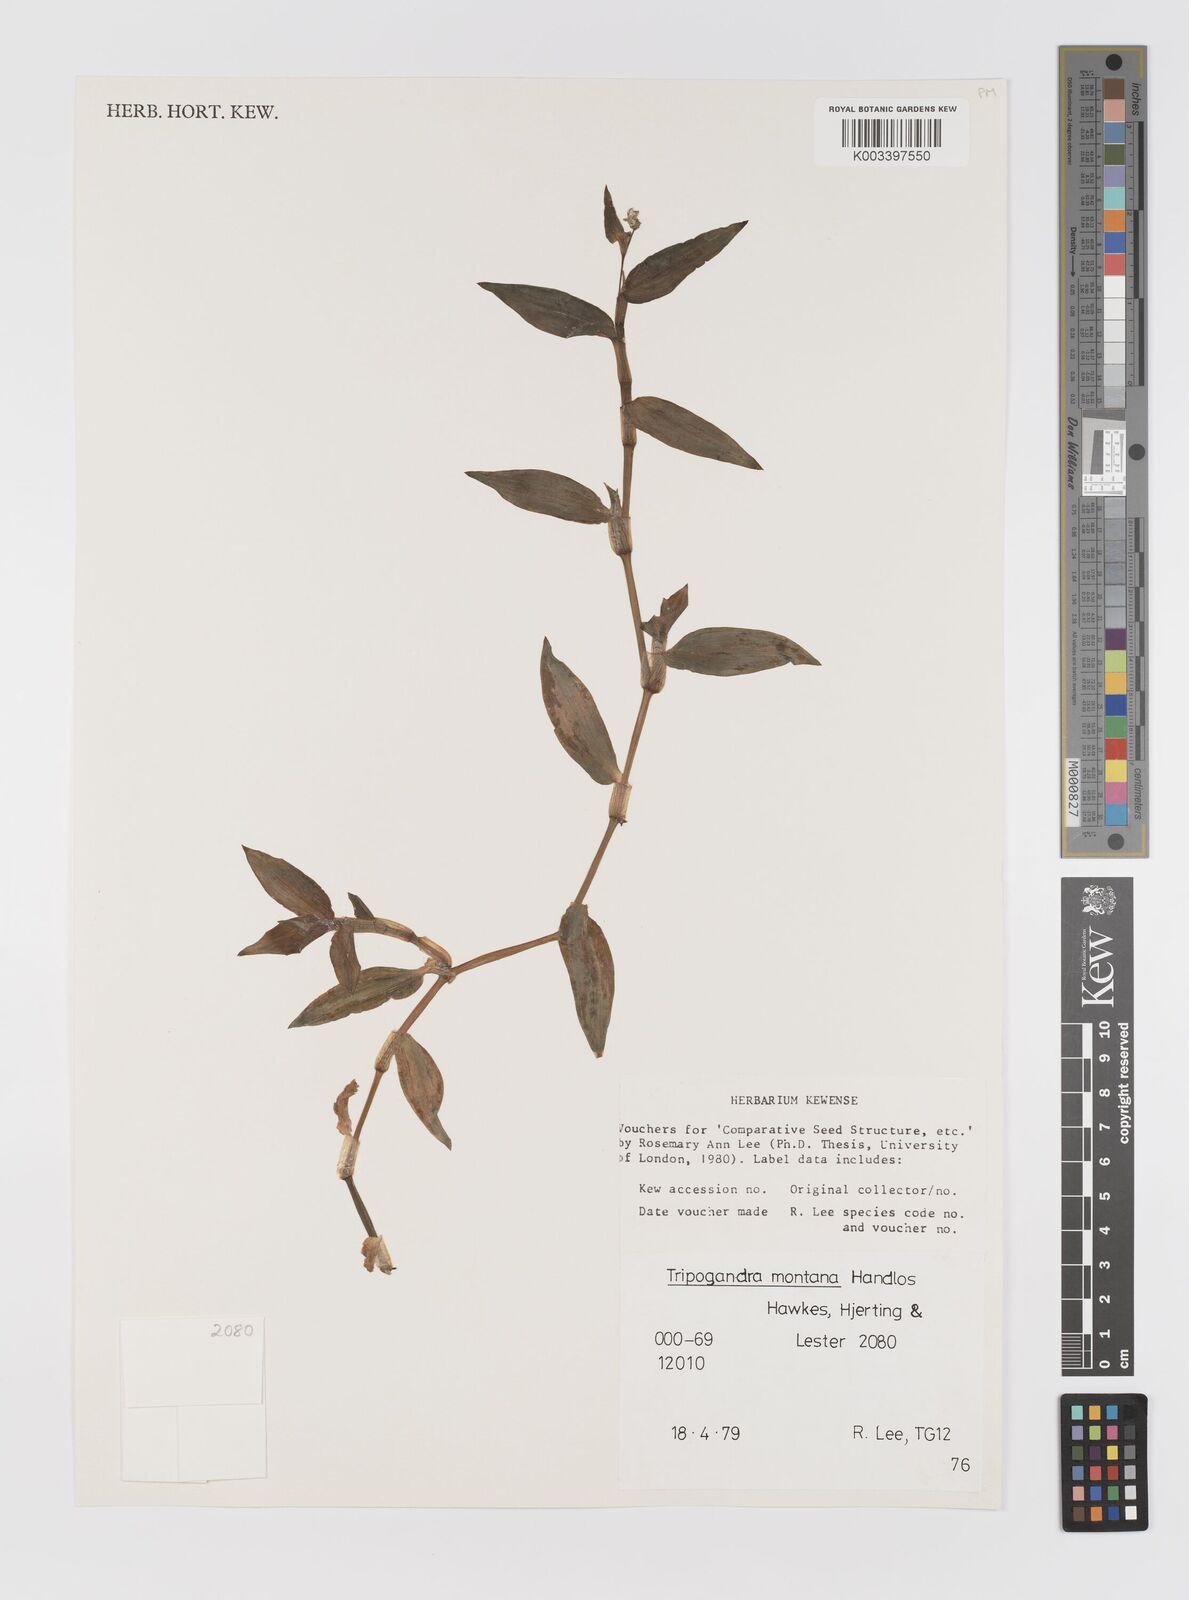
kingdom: Plantae
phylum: Tracheophyta
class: Liliopsida
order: Commelinales
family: Commelinaceae
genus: Callisia
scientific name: Callisia montana
